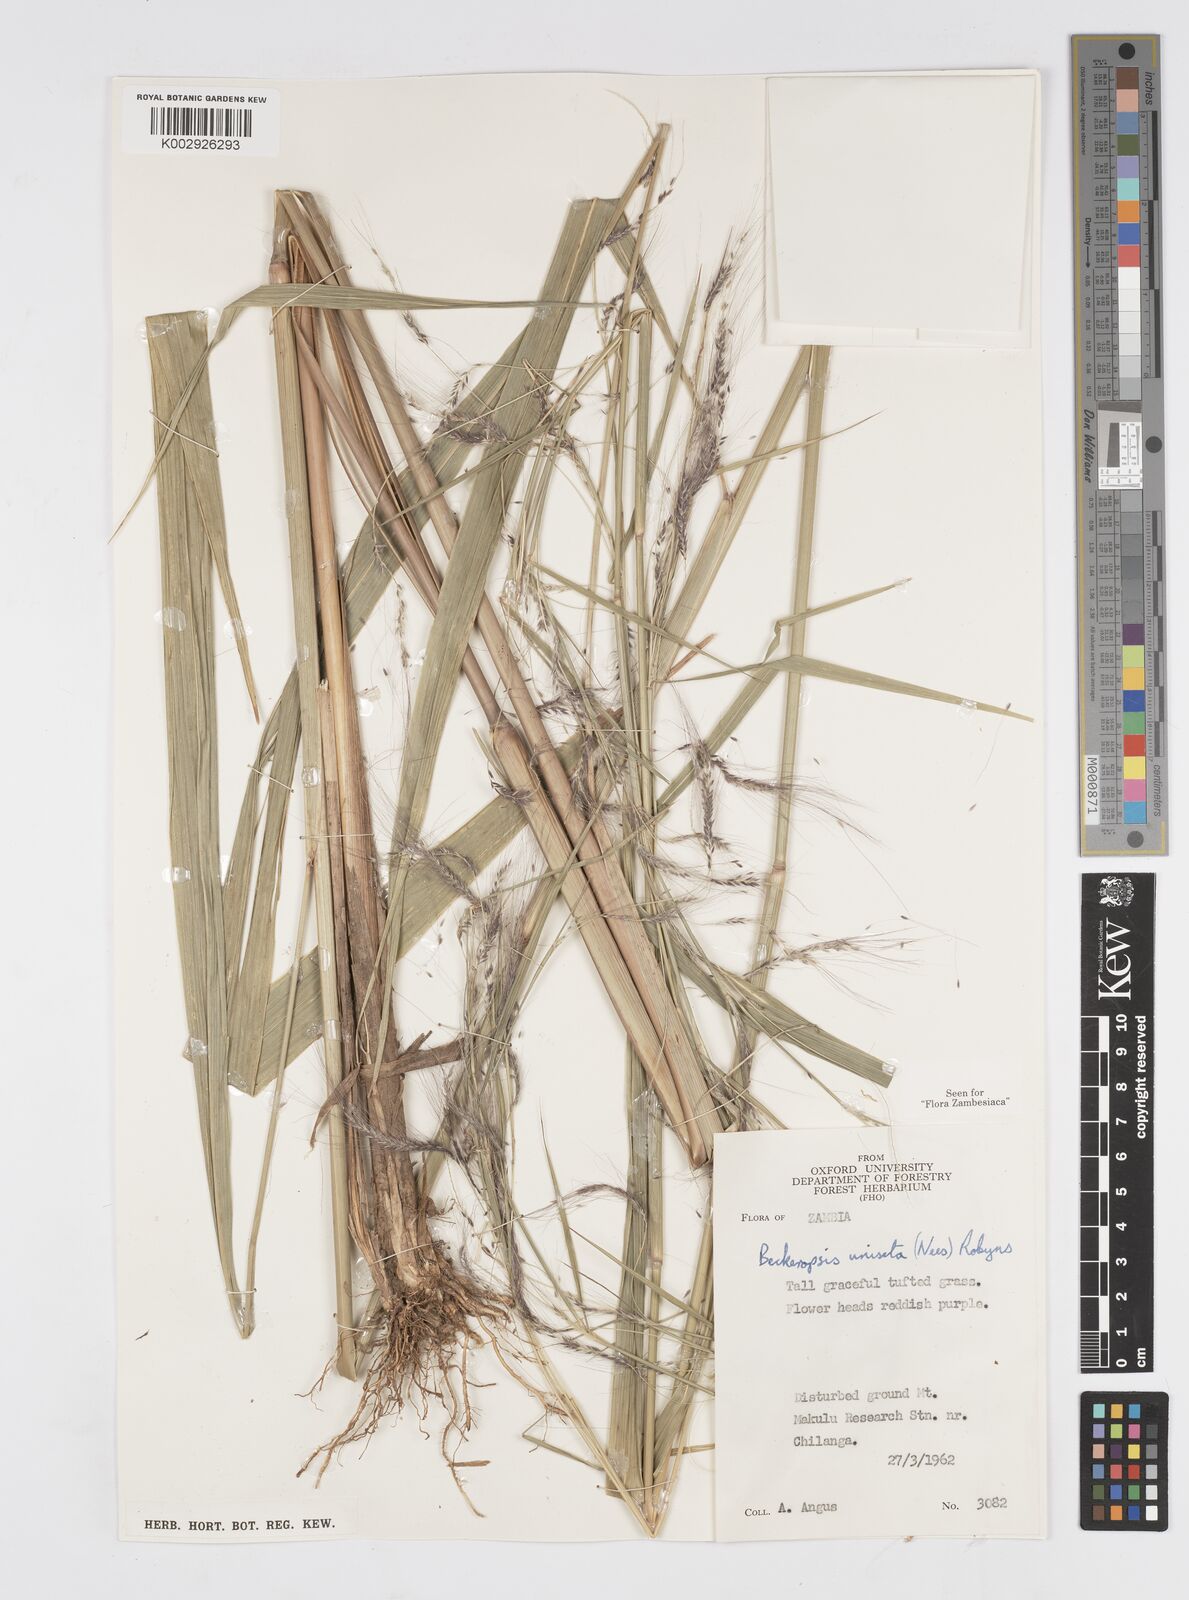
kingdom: Plantae
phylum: Tracheophyta
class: Liliopsida
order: Poales
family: Poaceae
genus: Cenchrus
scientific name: Cenchrus unisetus
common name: Natal grass
